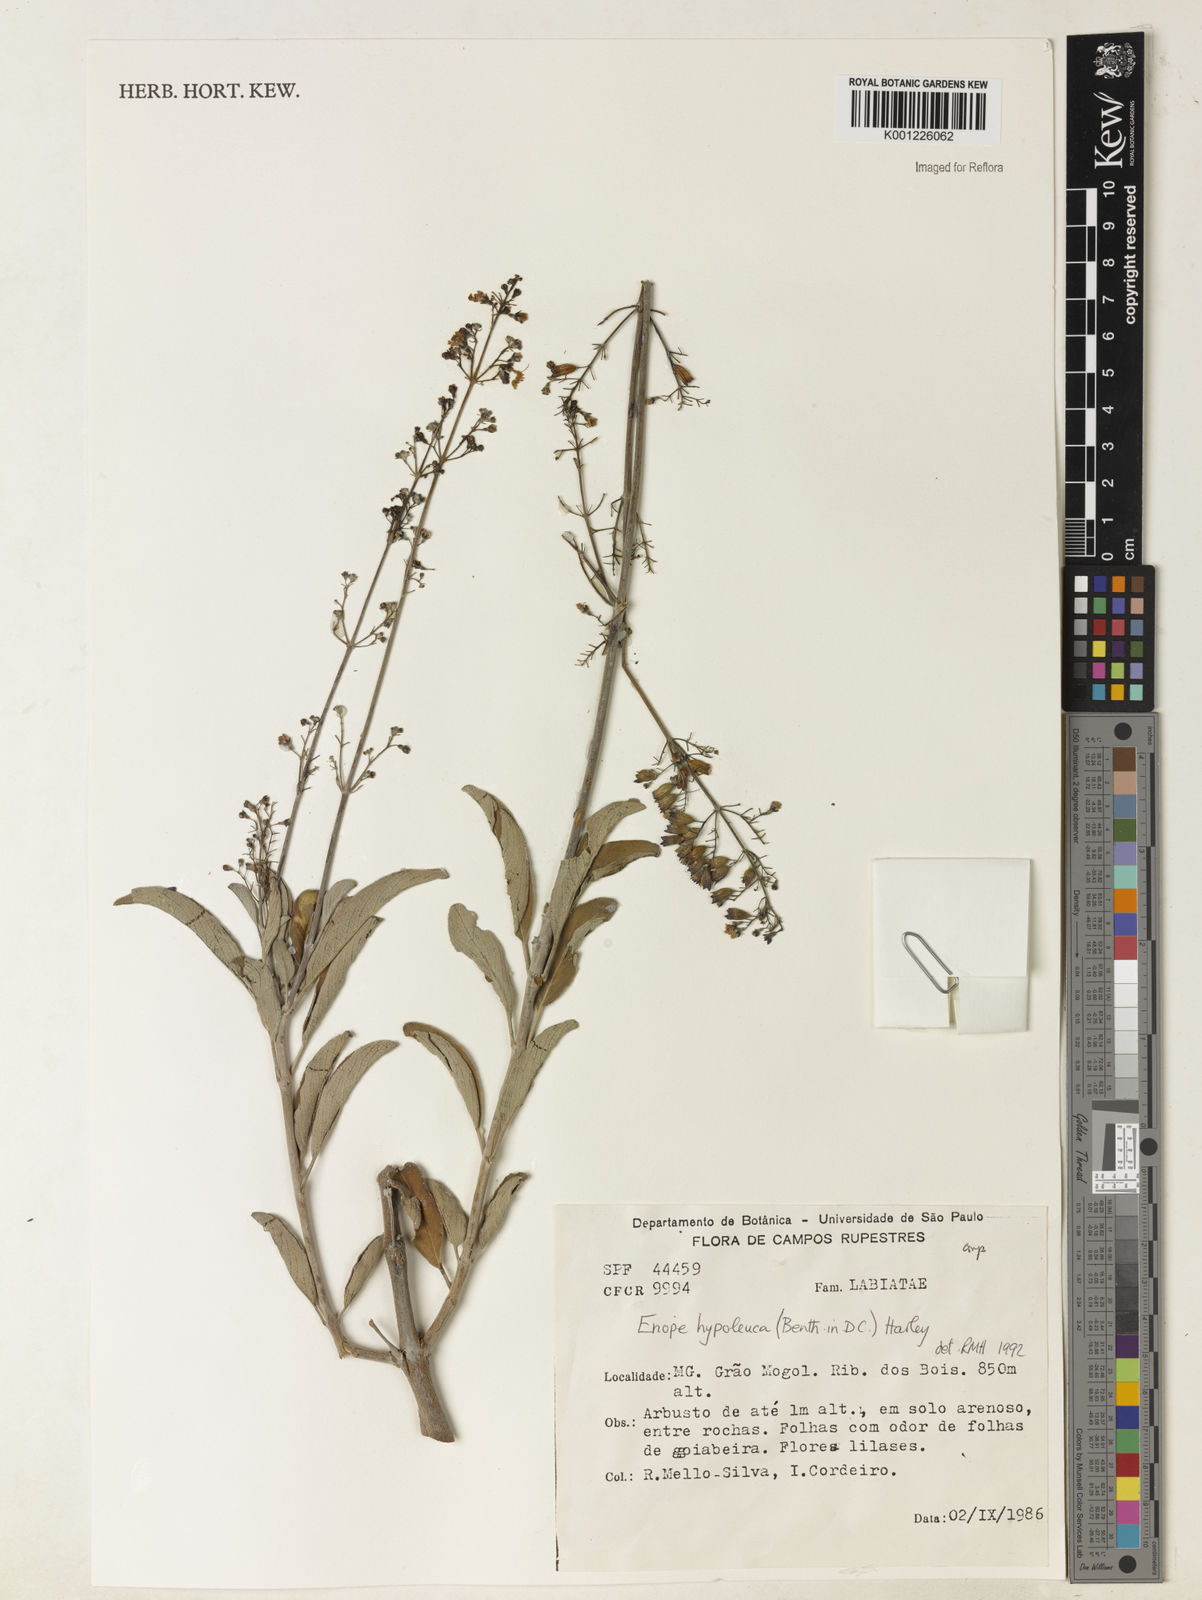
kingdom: Plantae
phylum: Tracheophyta
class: Magnoliopsida
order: Lamiales
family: Lamiaceae
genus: Eriope
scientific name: Eriope hypoleuca
